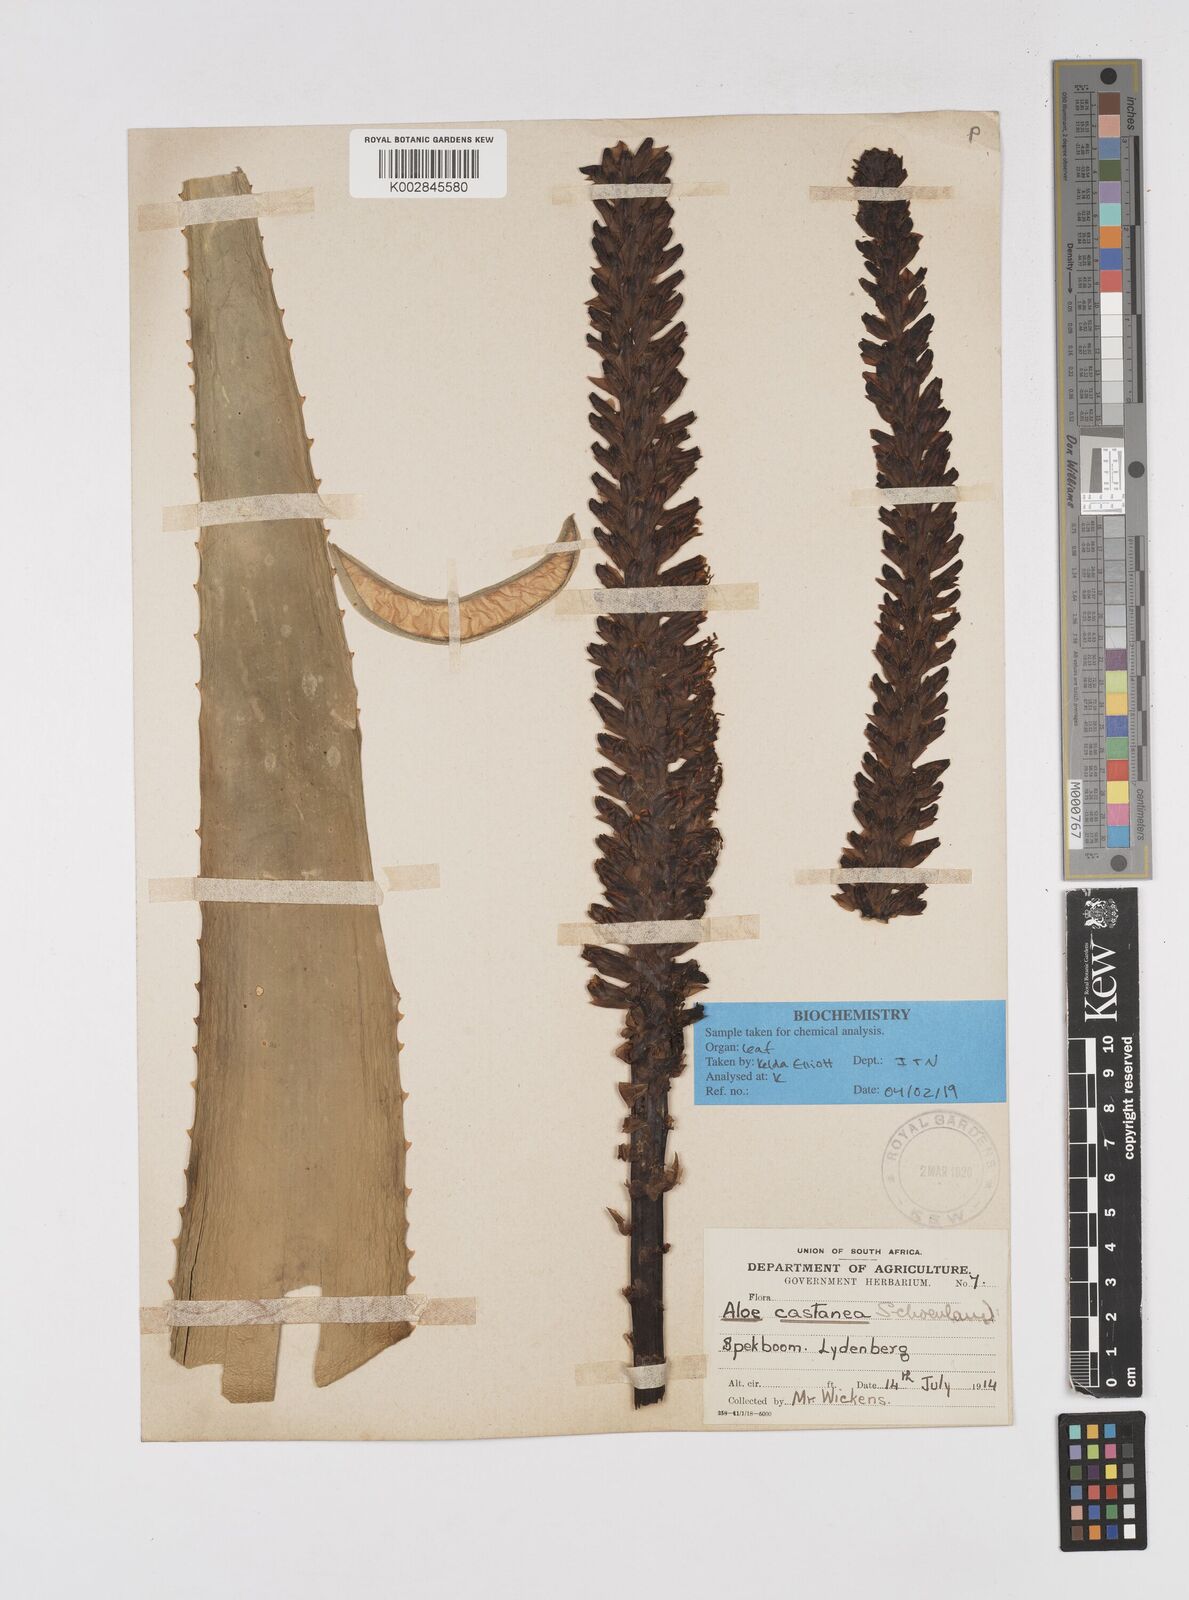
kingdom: Plantae
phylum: Tracheophyta
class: Liliopsida
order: Asparagales
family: Asphodelaceae
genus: Aloe
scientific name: Aloe castanea
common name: Cat's-tail aloe
